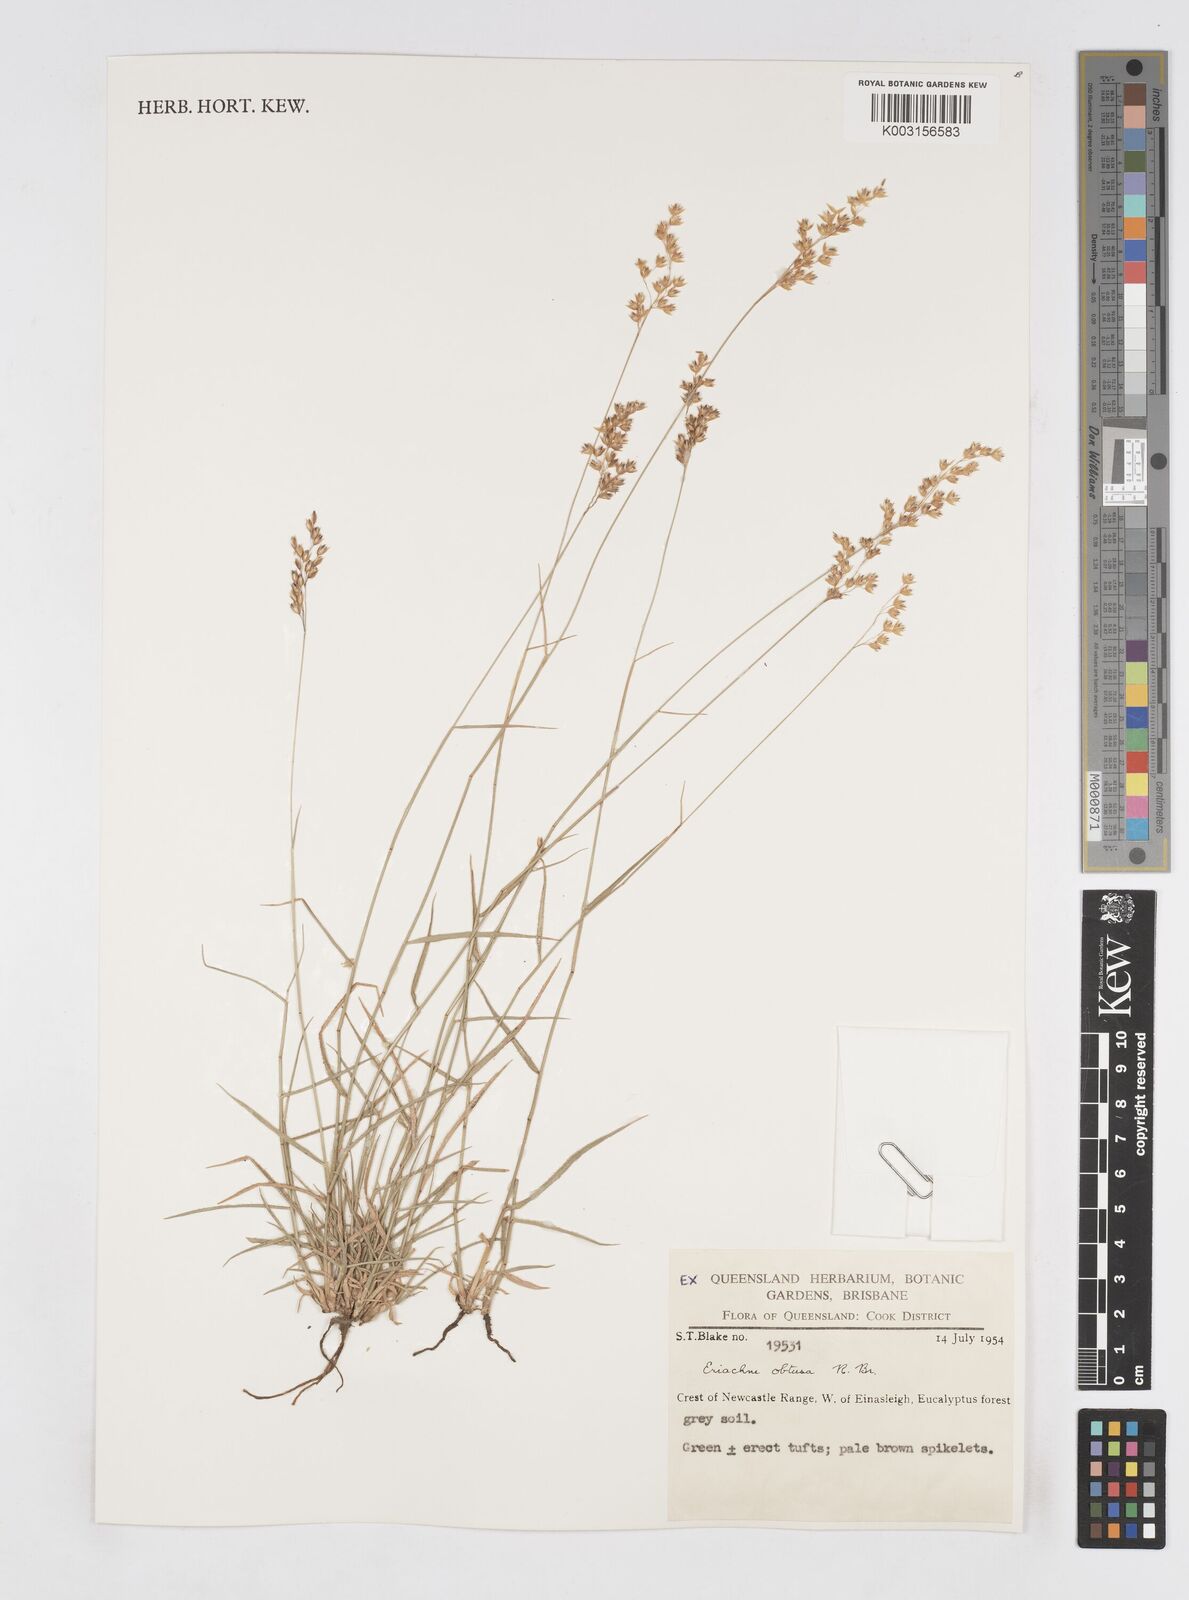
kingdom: Plantae
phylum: Tracheophyta
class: Liliopsida
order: Poales
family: Poaceae
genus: Eriachne
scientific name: Eriachne obtusa
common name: Northern wanderrie grass
